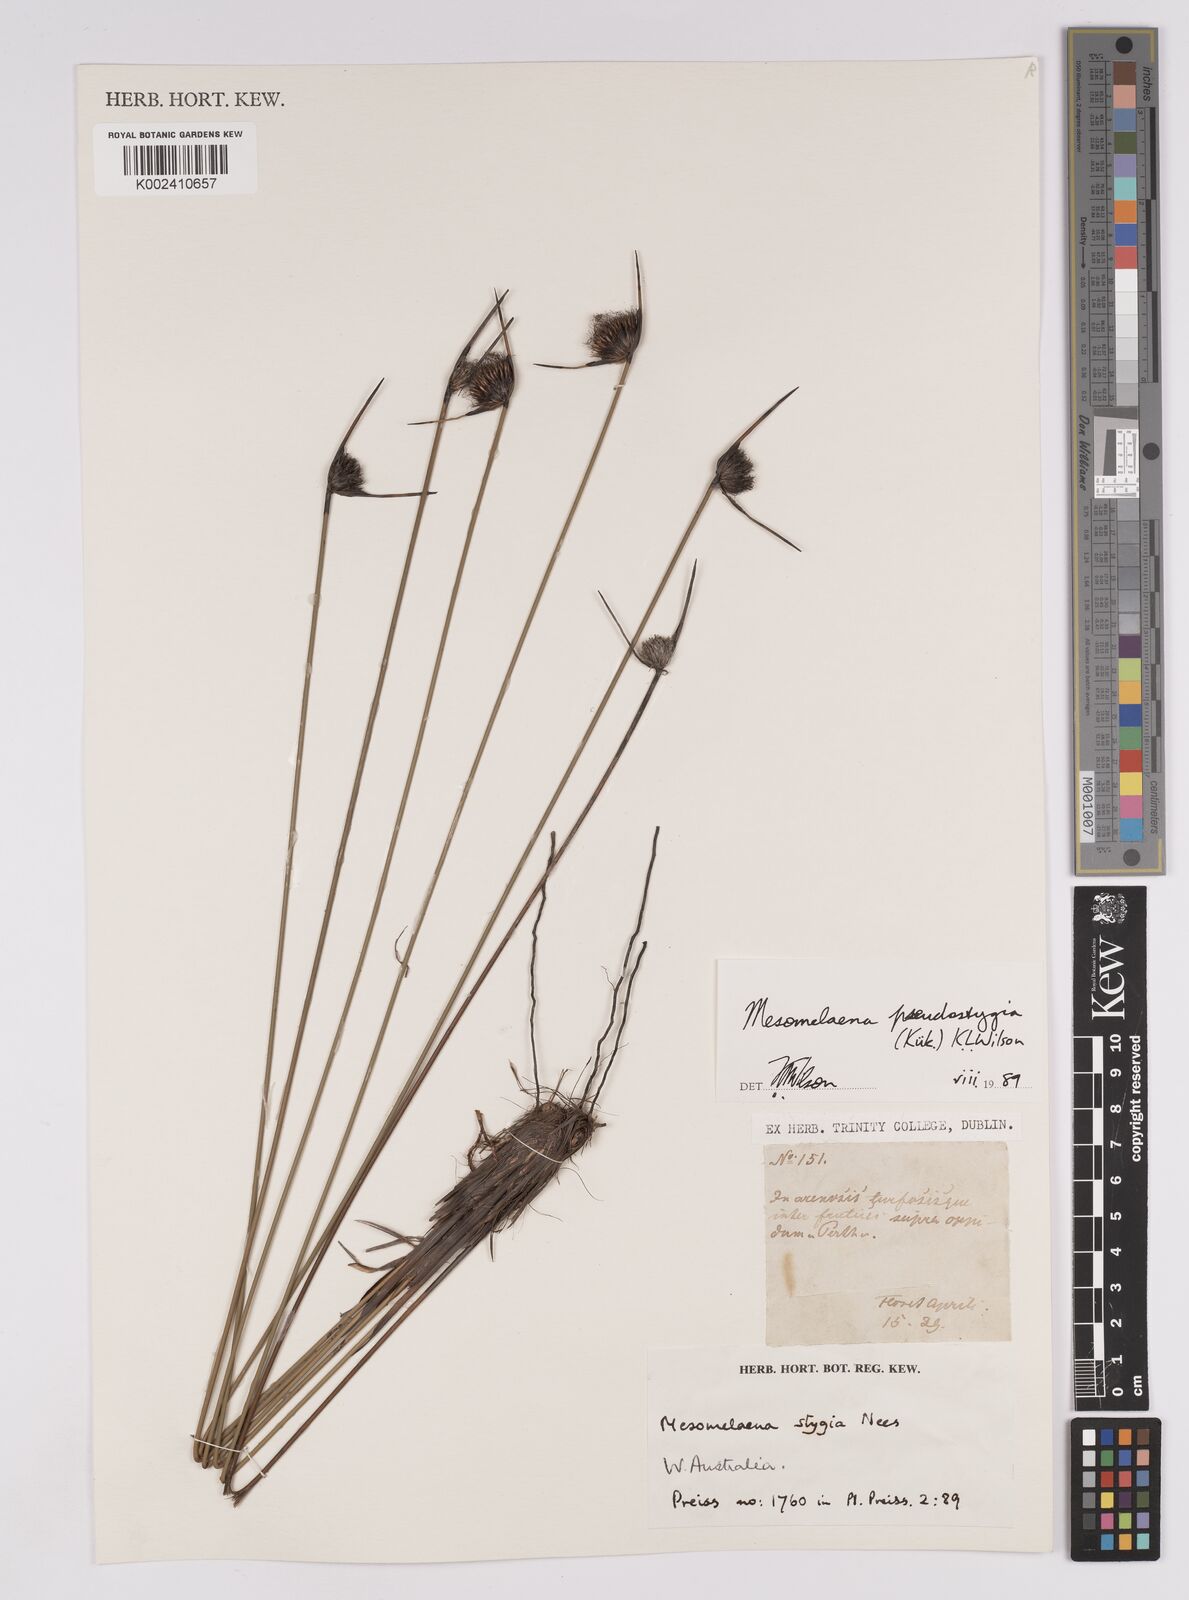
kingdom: Plantae
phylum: Tracheophyta
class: Liliopsida
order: Poales
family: Cyperaceae
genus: Mesomelaena
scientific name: Mesomelaena pseudostygia
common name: Semaphore sedge
